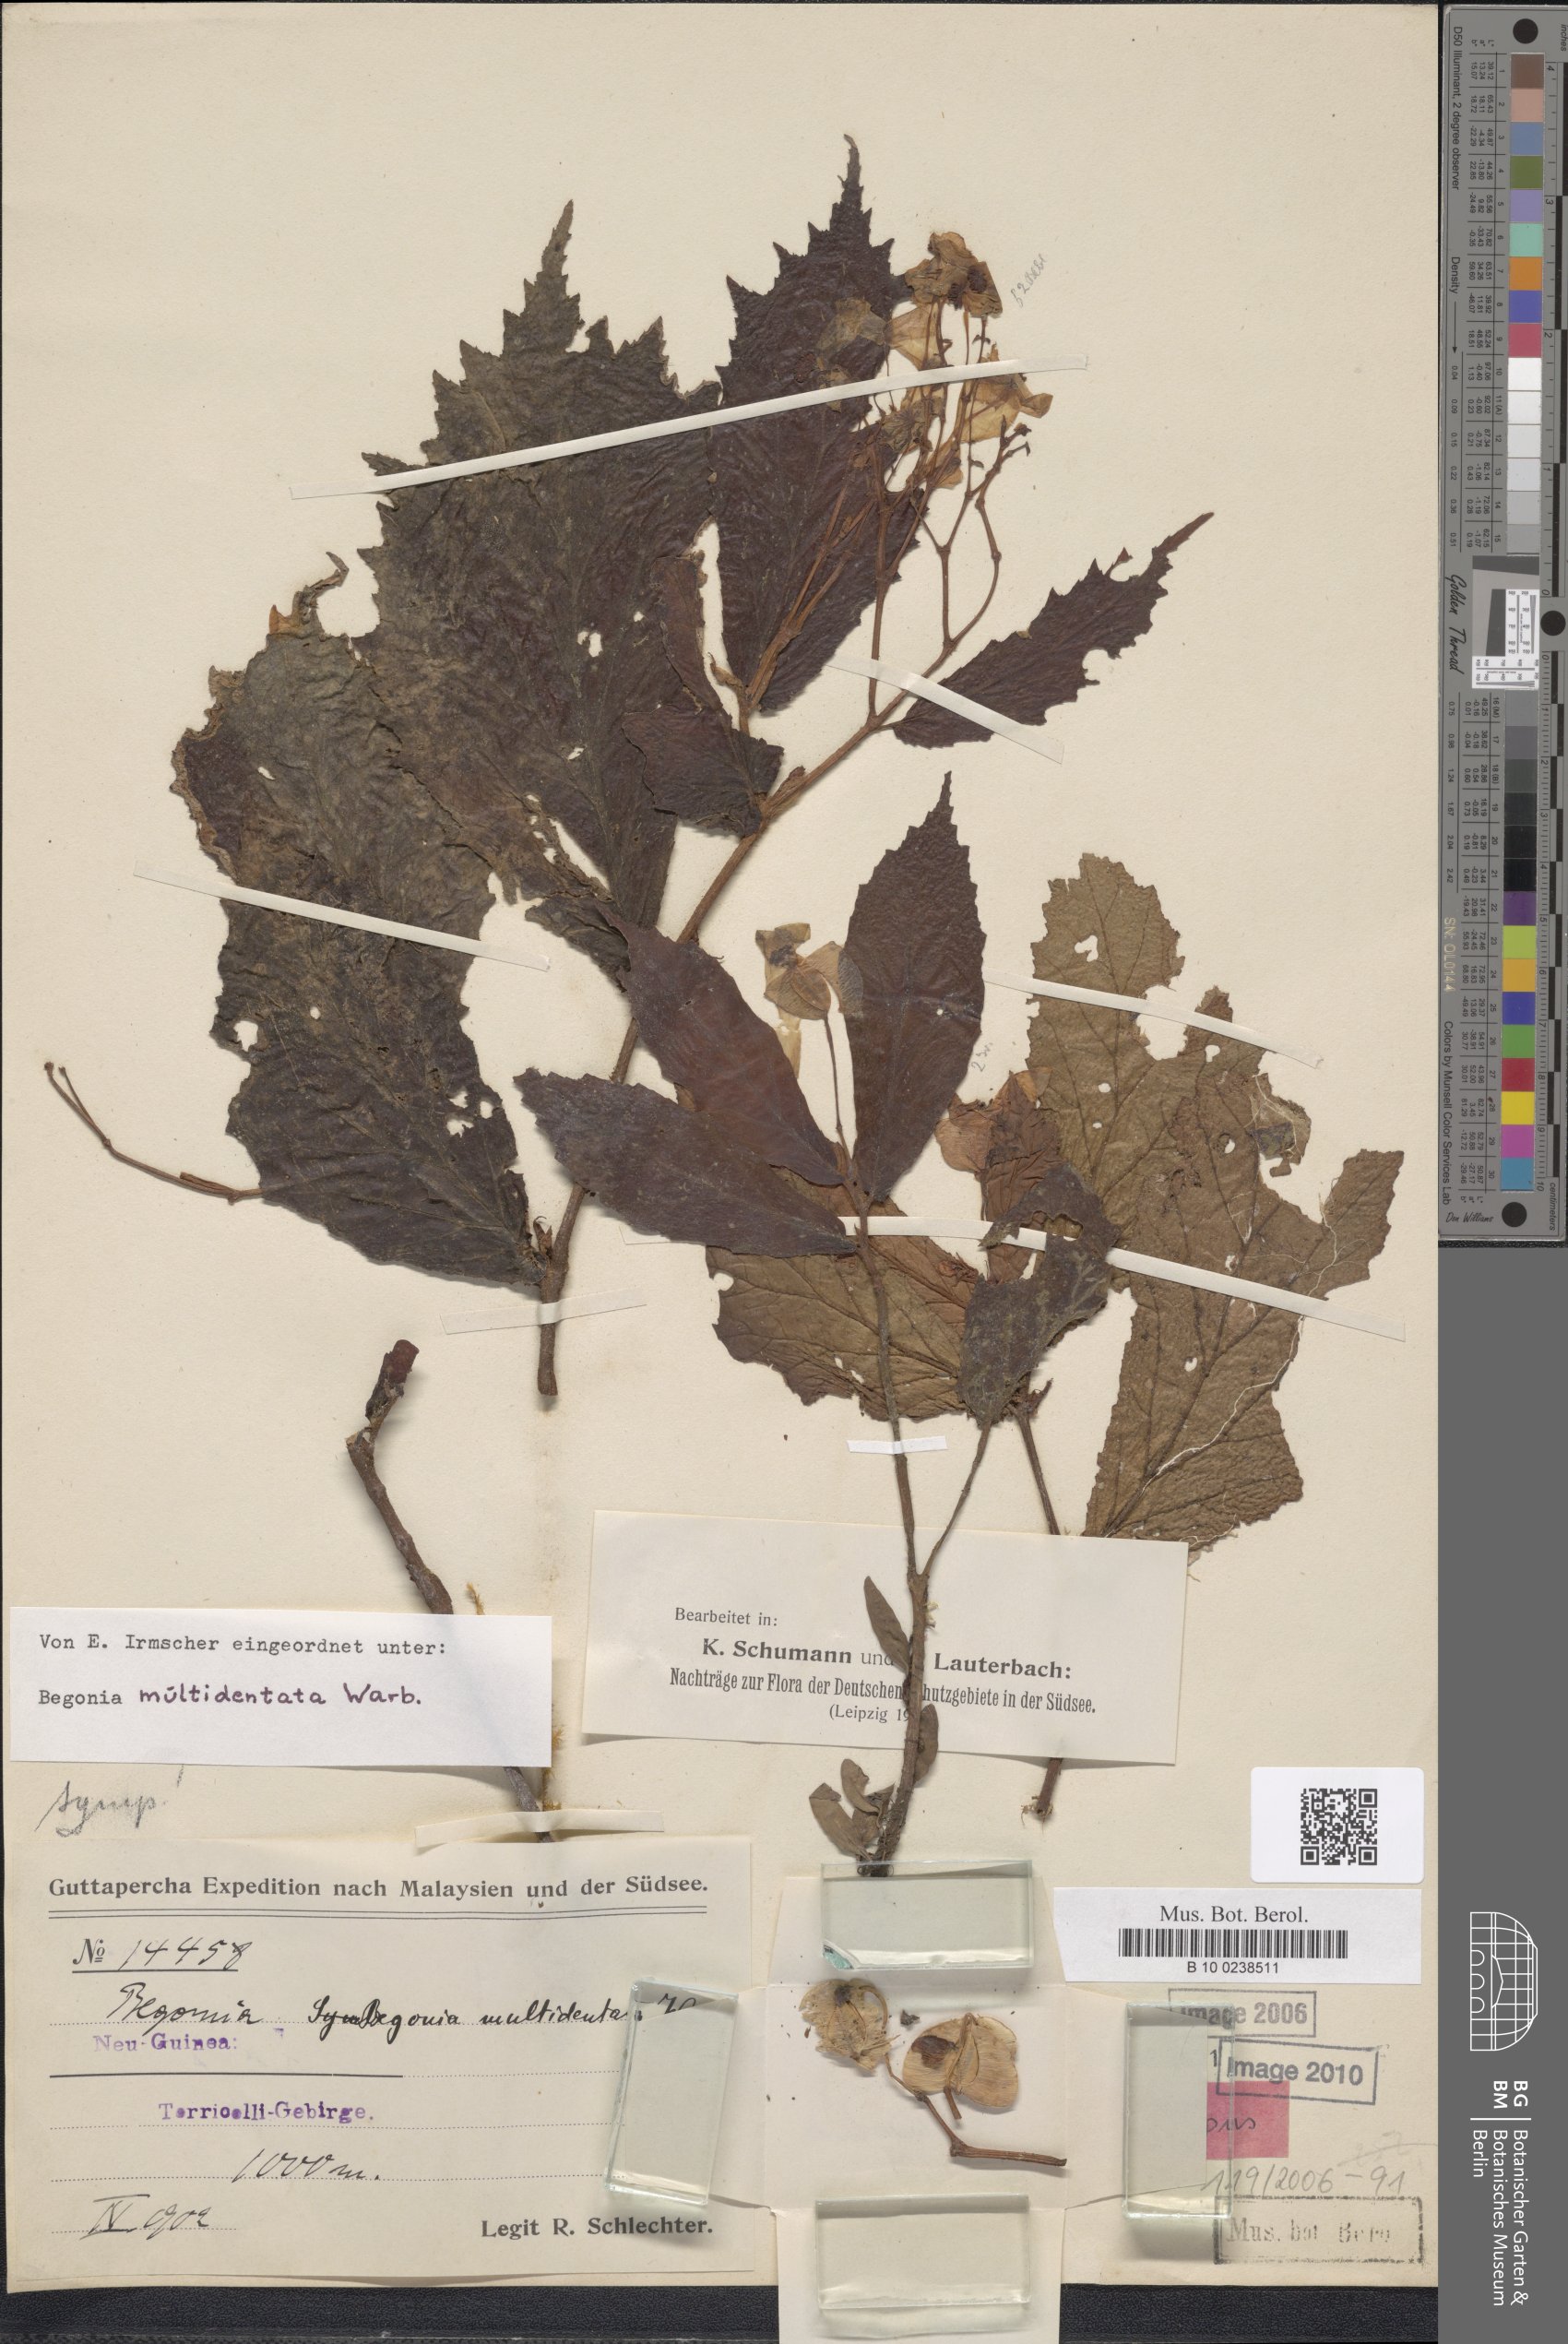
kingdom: Plantae
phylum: Tracheophyta
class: Magnoliopsida
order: Cucurbitales
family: Begoniaceae
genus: Begonia
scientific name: Begonia multidentata
